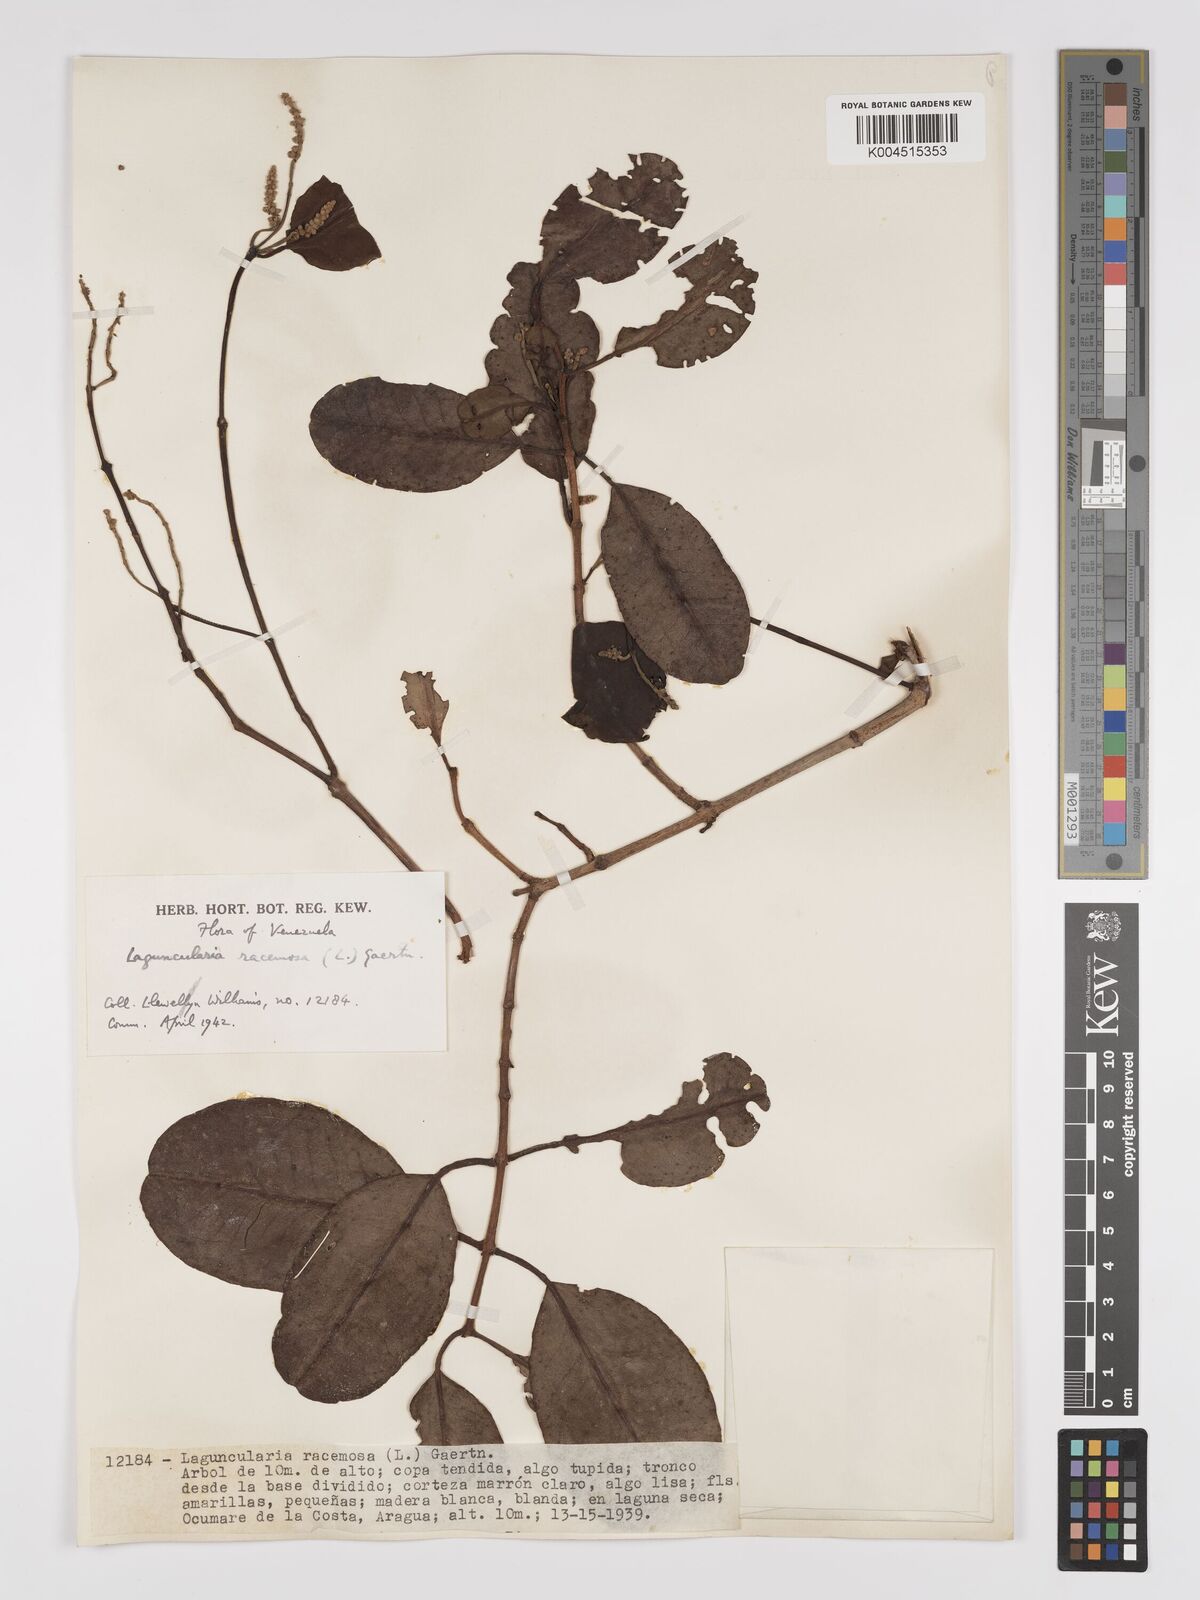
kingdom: Plantae
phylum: Tracheophyta
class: Magnoliopsida
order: Myrtales
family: Combretaceae
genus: Laguncularia
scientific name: Laguncularia racemosa
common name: White mangrove
